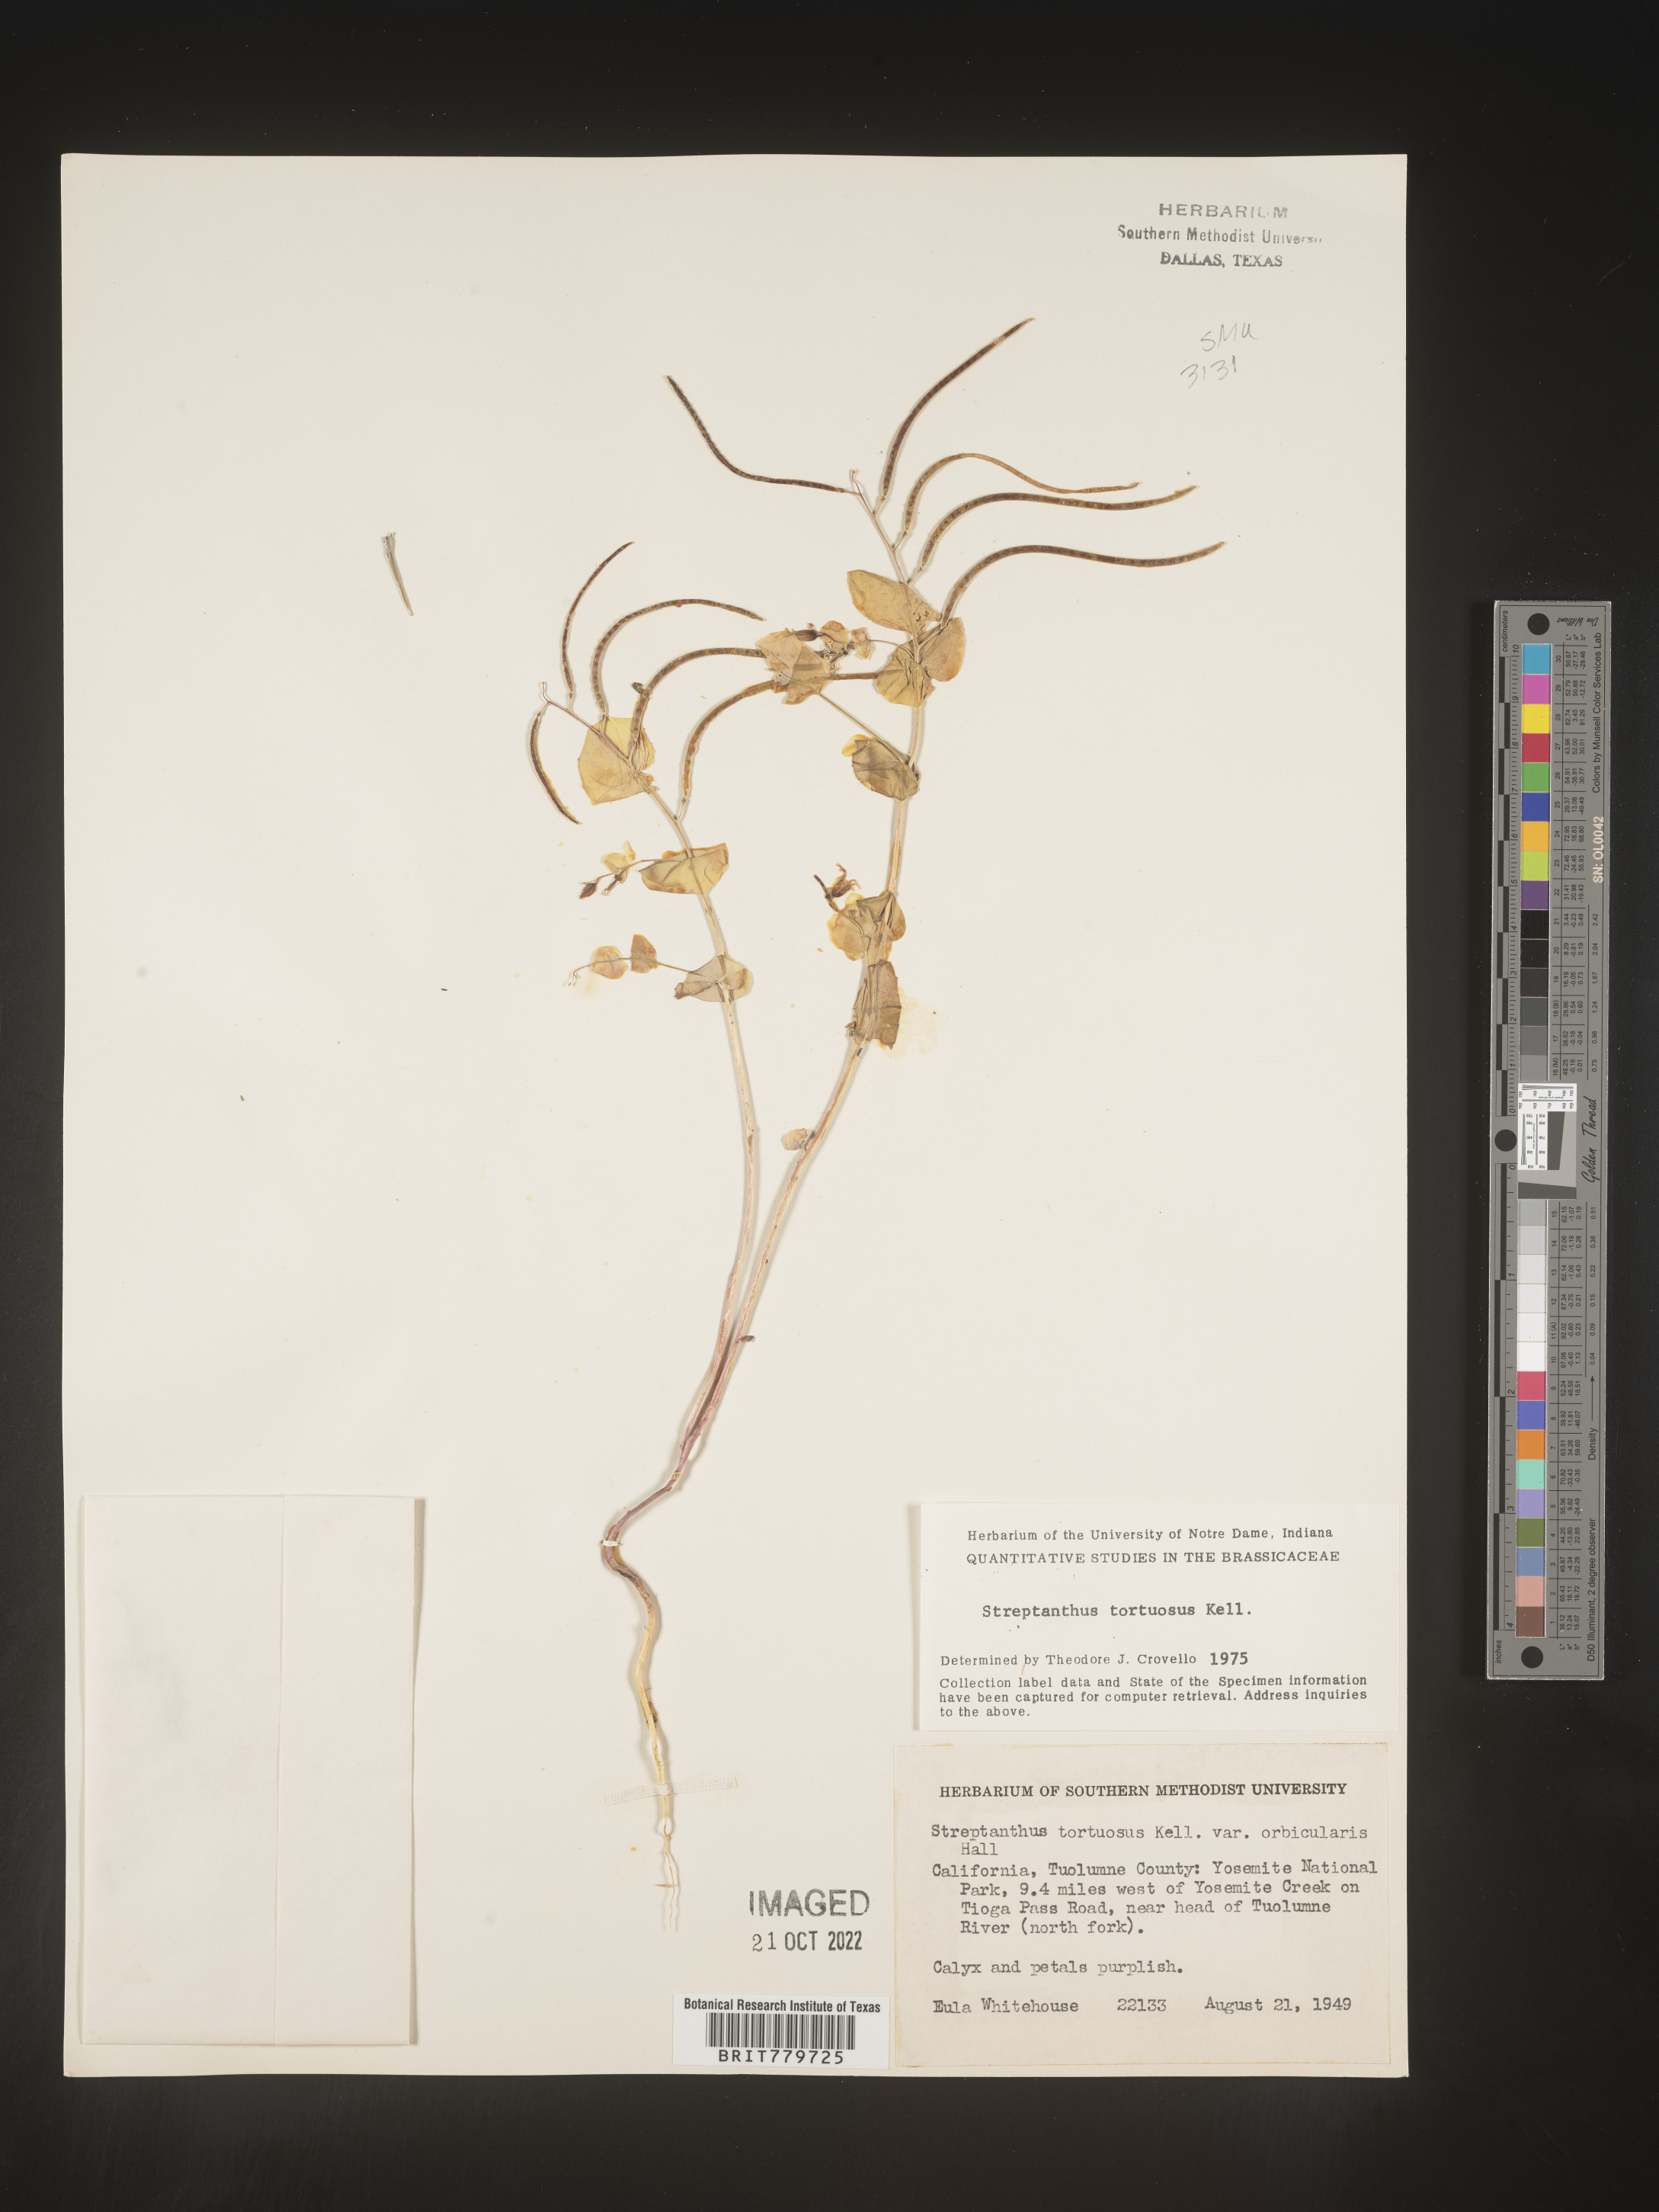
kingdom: Plantae
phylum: Tracheophyta
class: Magnoliopsida
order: Brassicales
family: Brassicaceae
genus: Streptanthus
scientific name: Streptanthus
